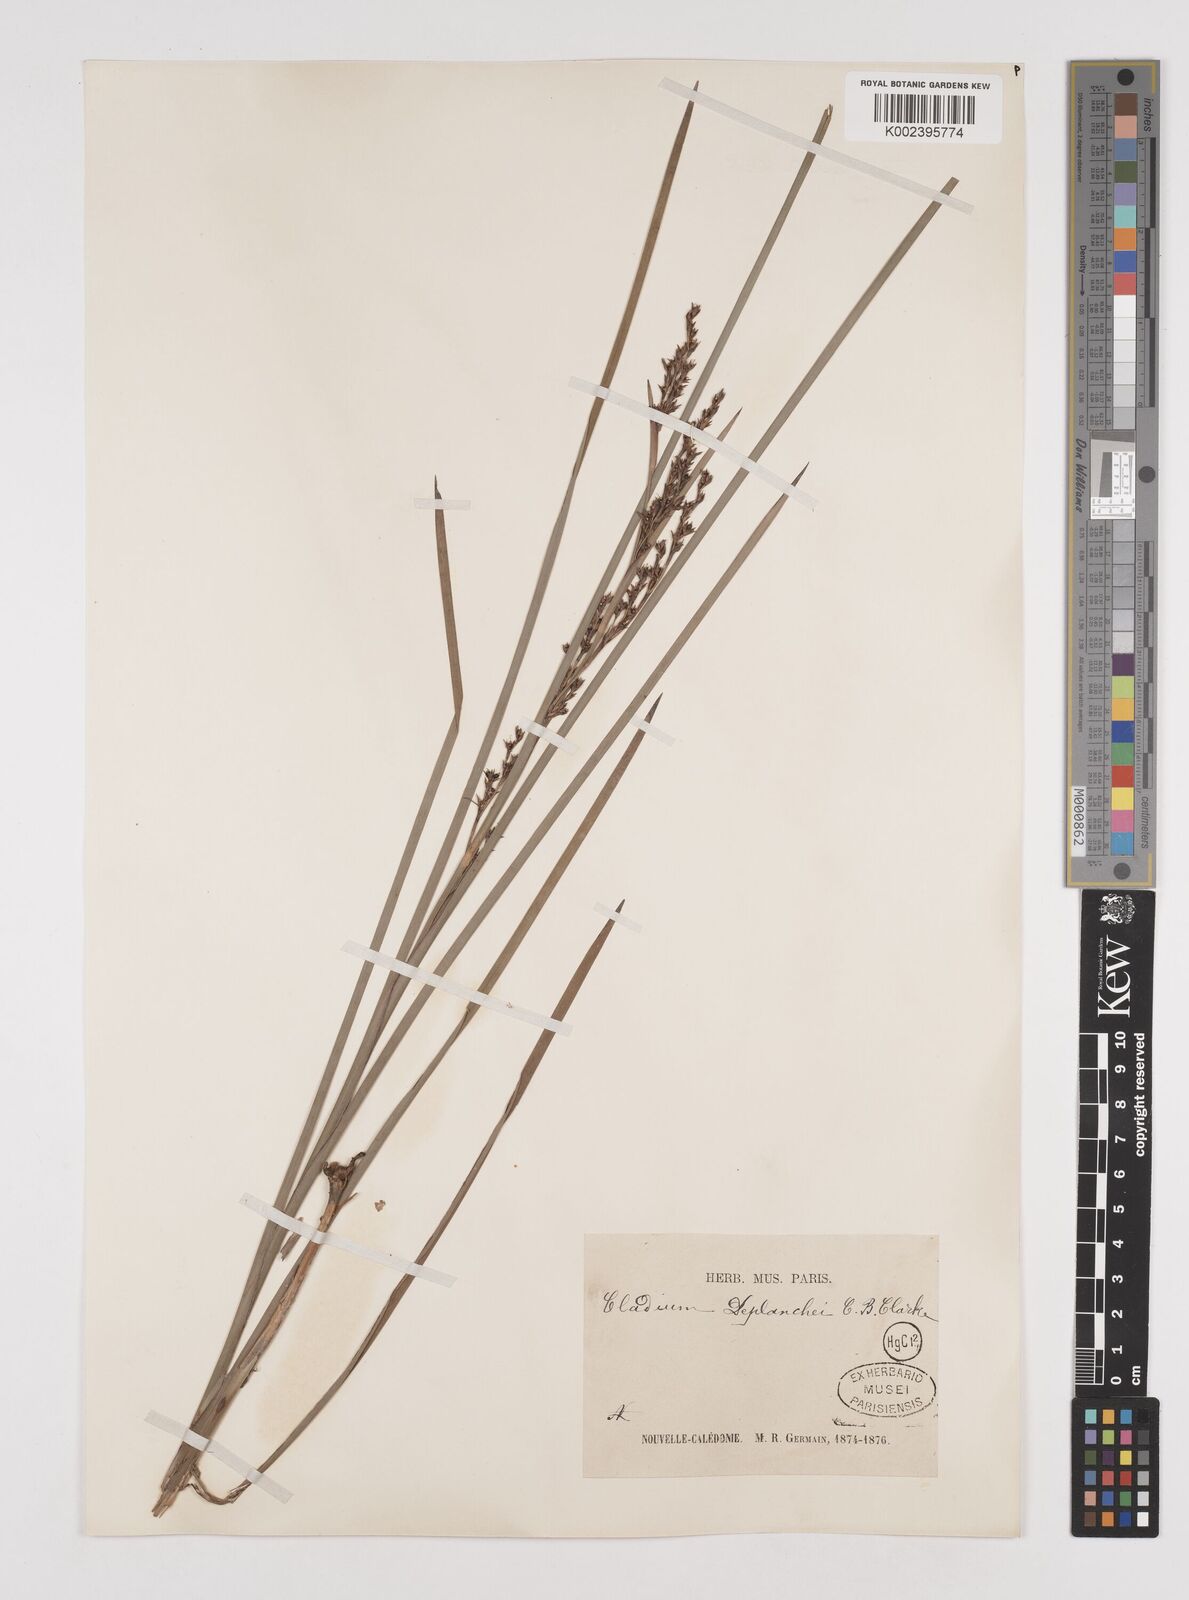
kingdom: Plantae
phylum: Tracheophyta
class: Liliopsida
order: Poales
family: Cyperaceae
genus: Machaerina
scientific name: Machaerina deplanchei
